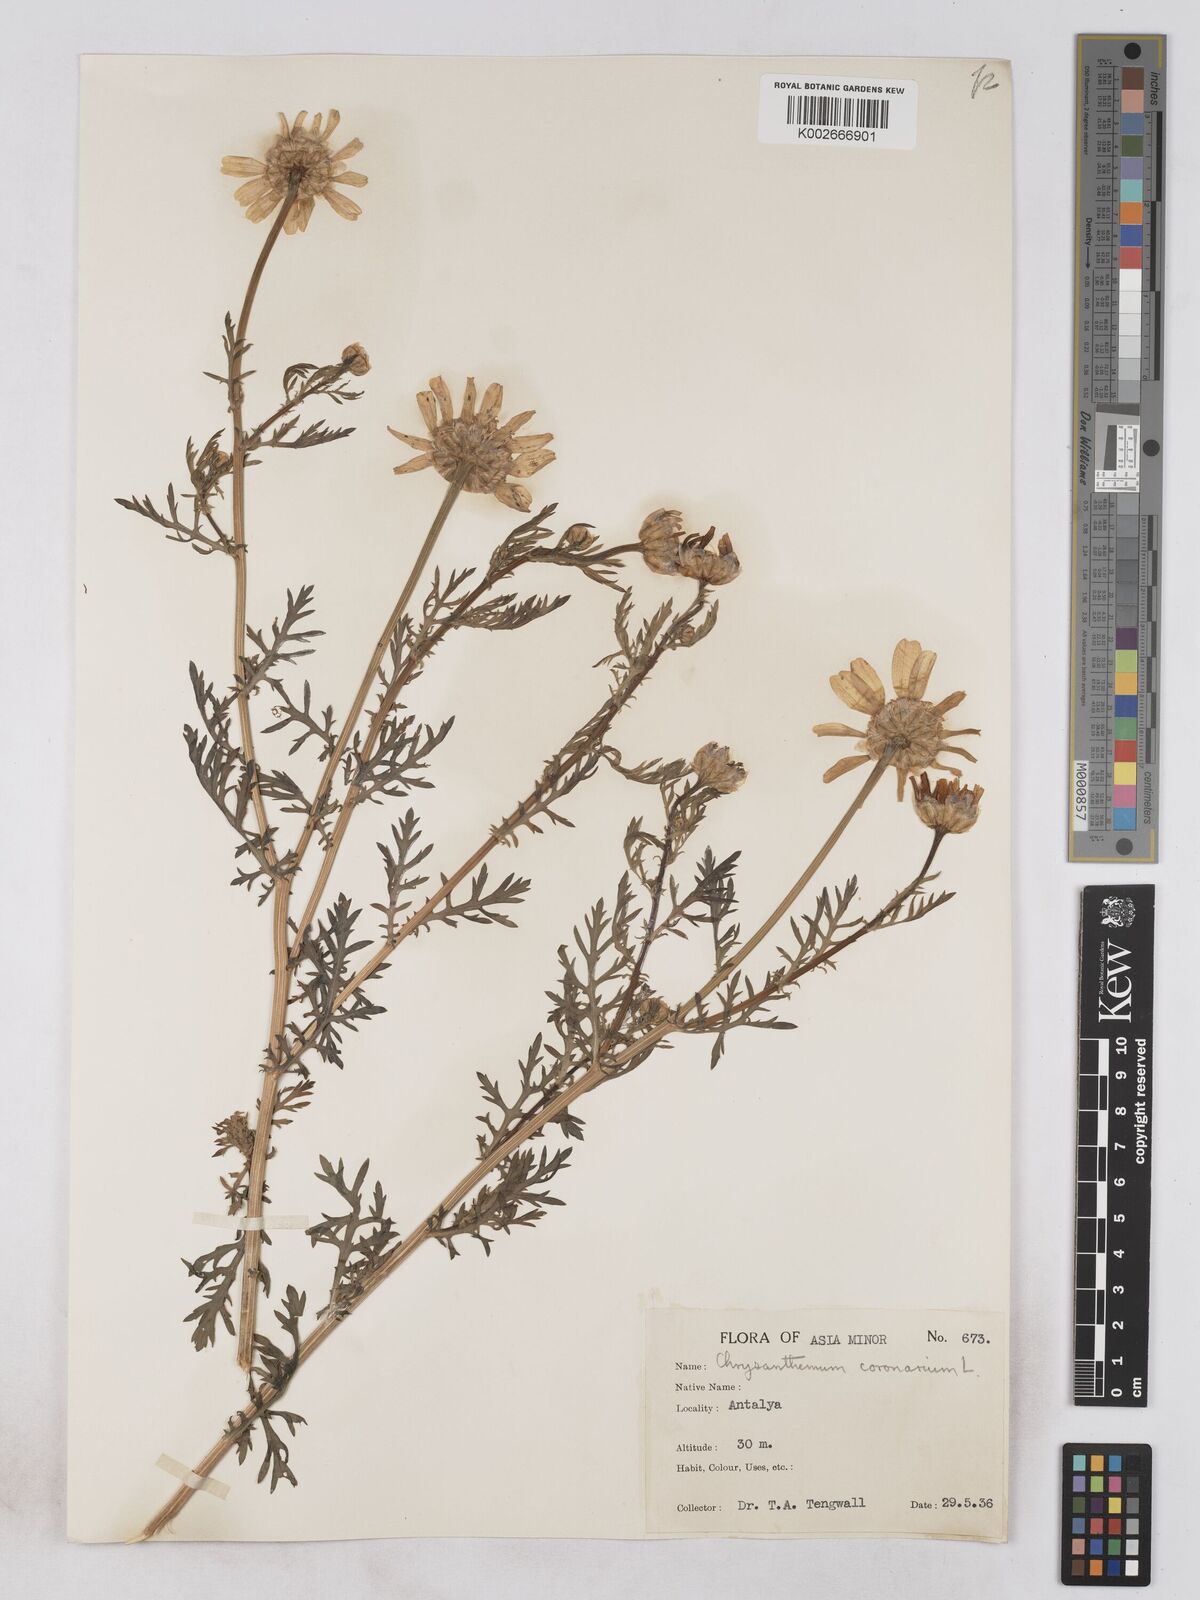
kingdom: Plantae
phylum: Tracheophyta
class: Magnoliopsida
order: Asterales
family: Asteraceae
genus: Glebionis
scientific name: Glebionis coronaria
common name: Crowndaisy
